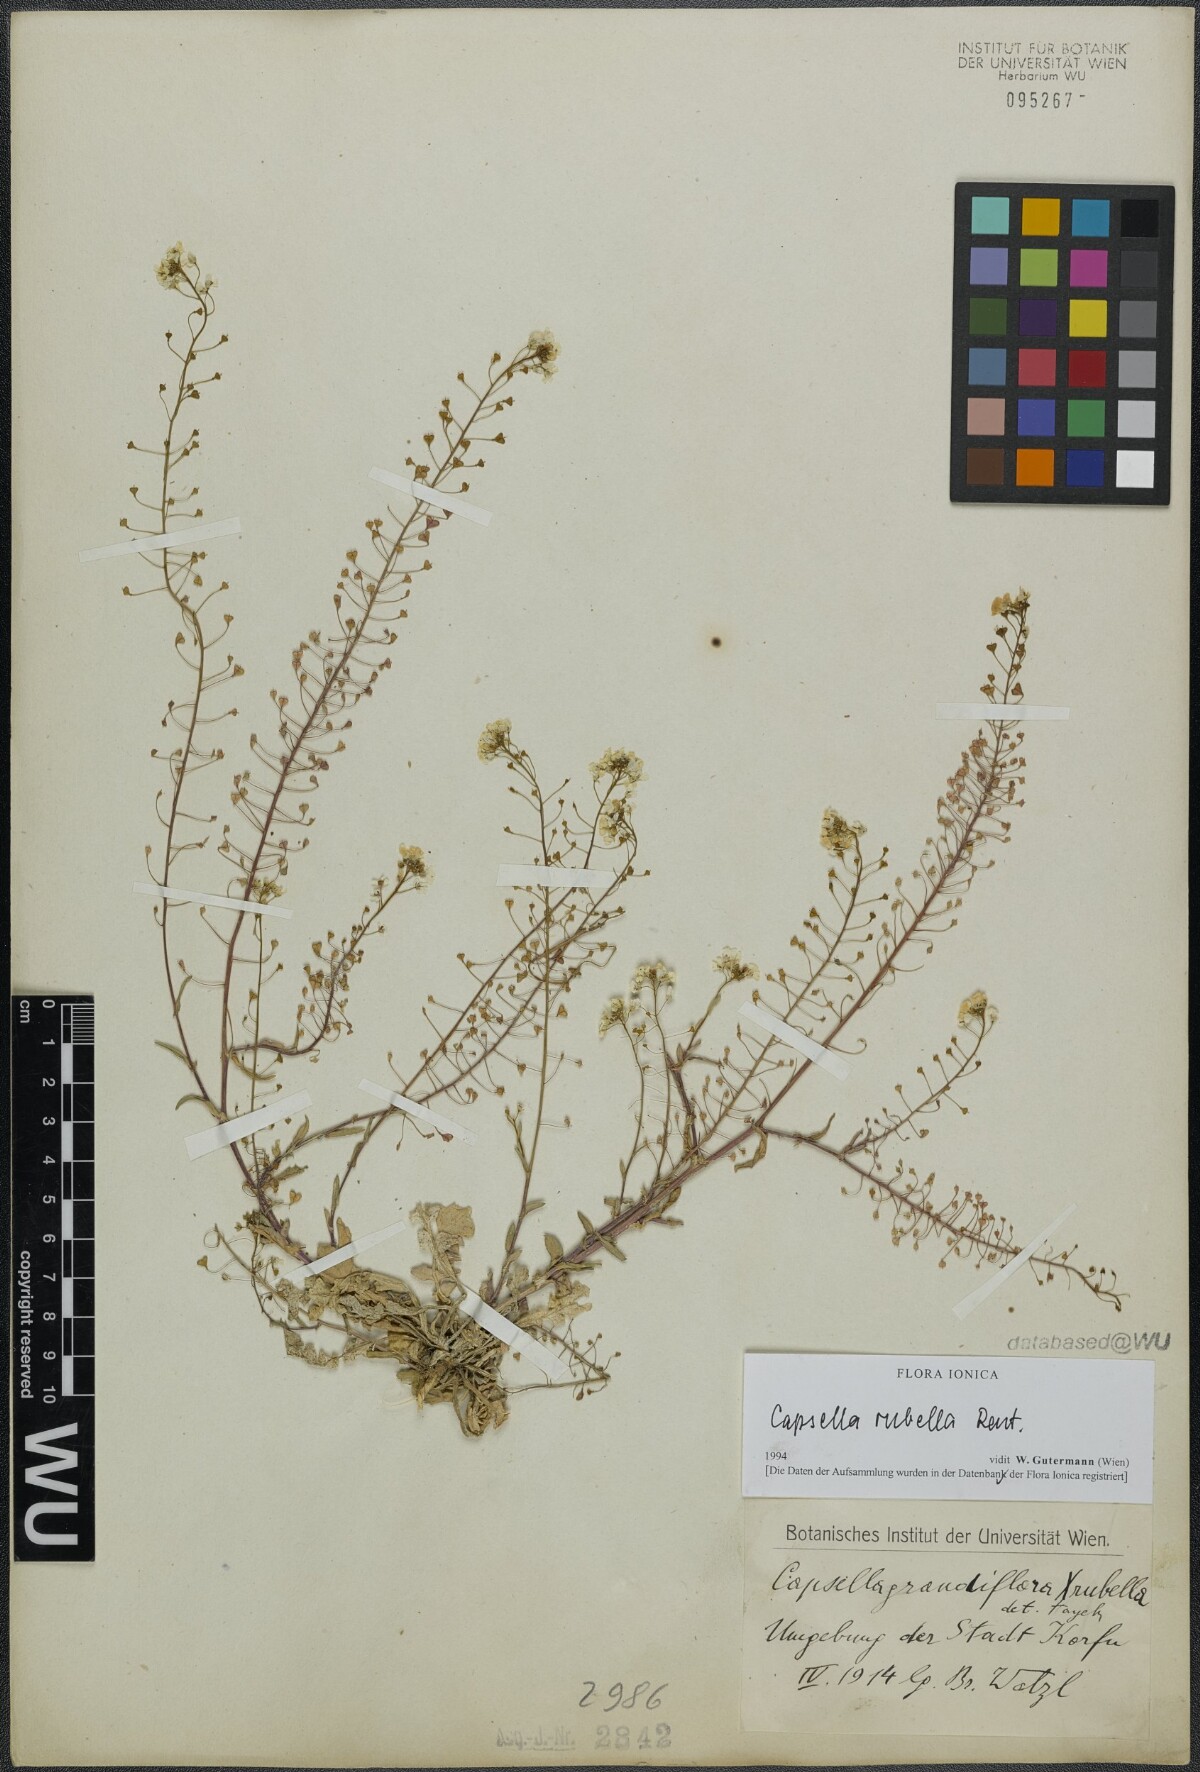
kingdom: Plantae
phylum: Tracheophyta
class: Magnoliopsida
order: Brassicales
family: Brassicaceae
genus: Capsella
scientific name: Capsella rubella
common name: Pink shepherd's-purse
